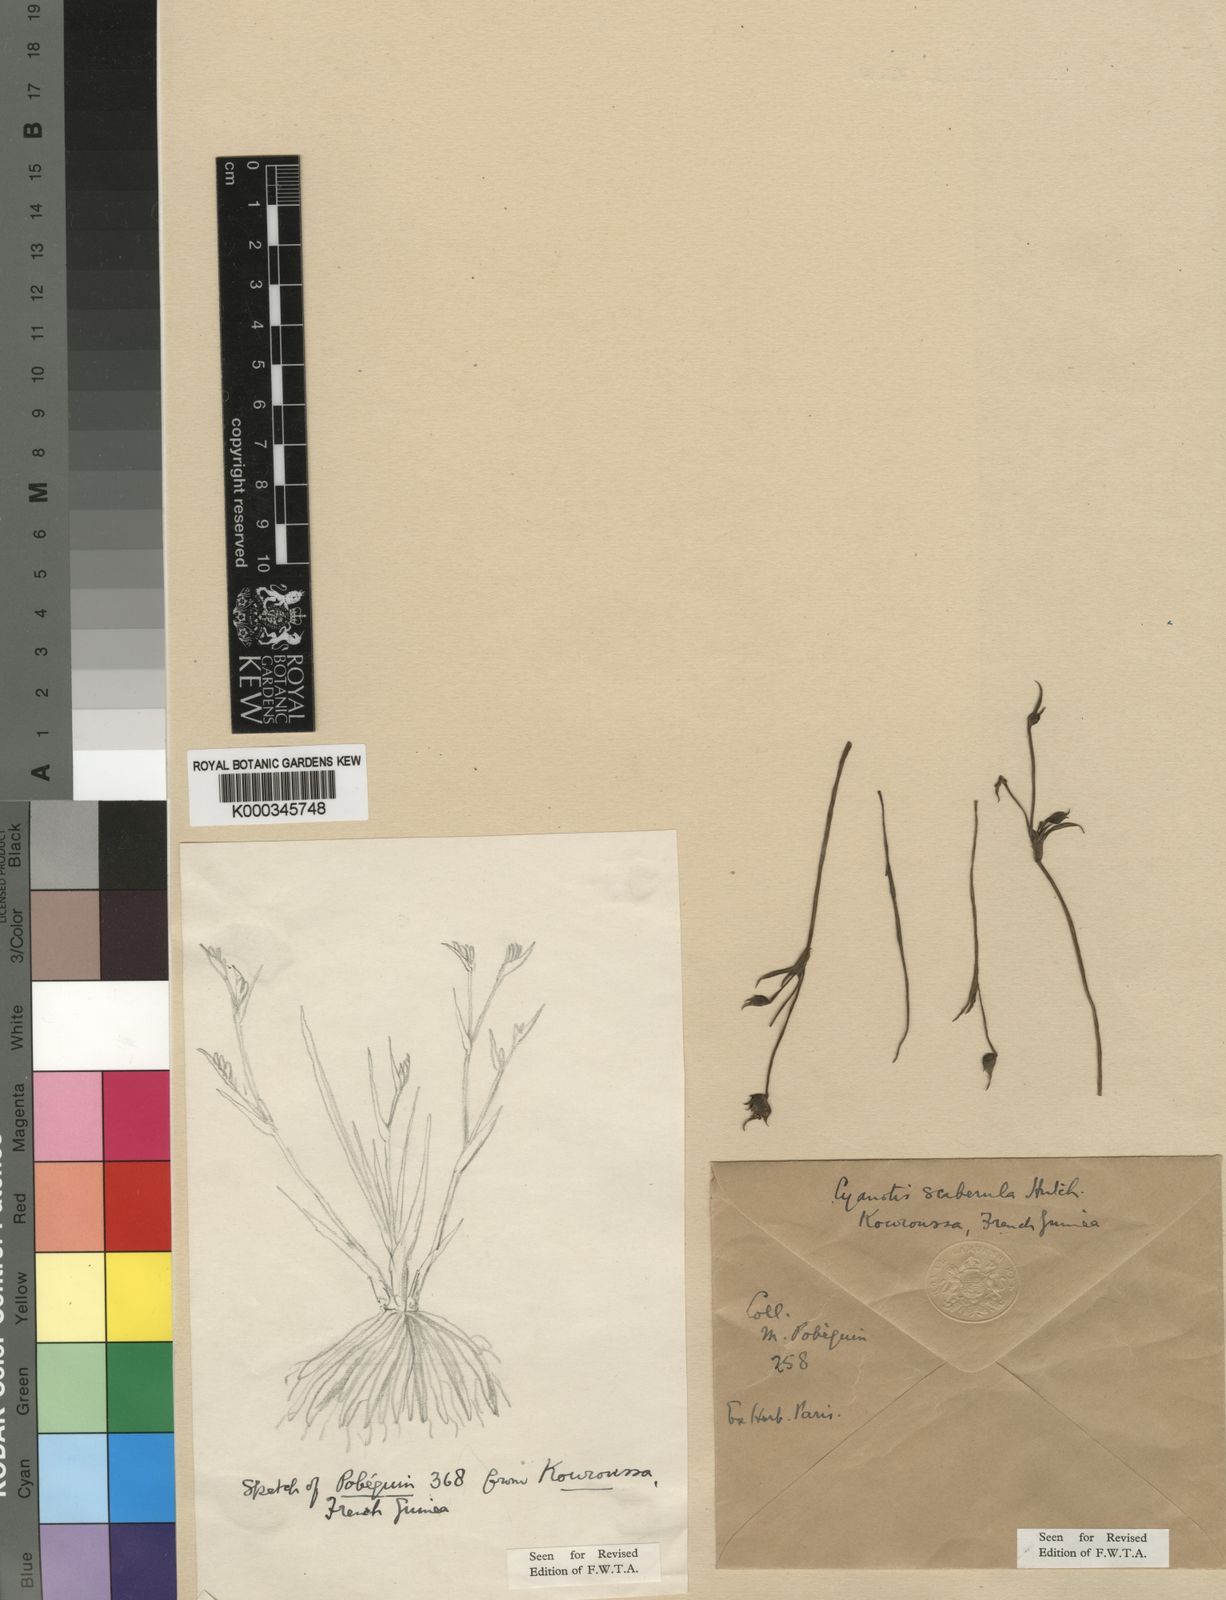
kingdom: Plantae
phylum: Tracheophyta
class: Liliopsida
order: Commelinales
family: Commelinaceae
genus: Cyanotis
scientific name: Cyanotis scaberula
